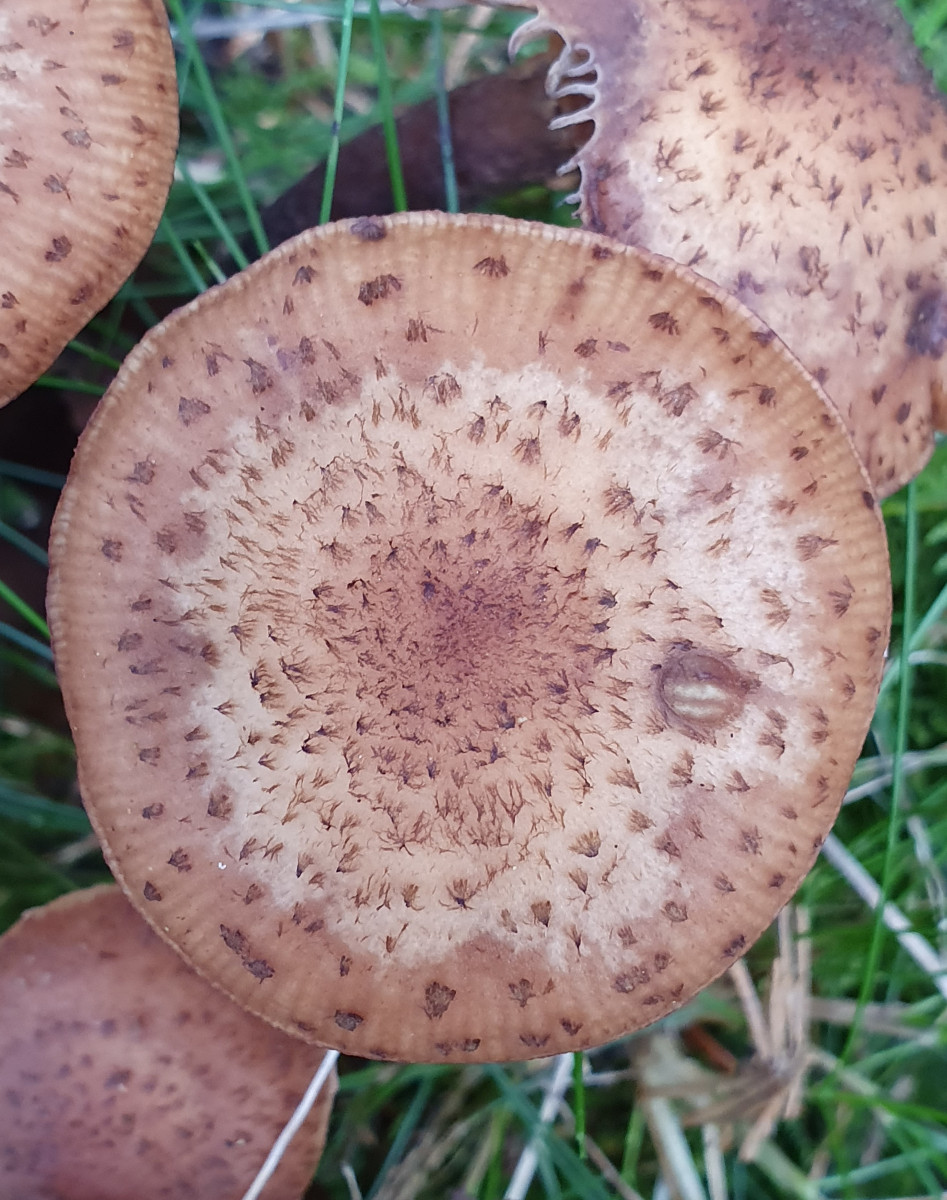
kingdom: Fungi
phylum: Basidiomycota
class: Agaricomycetes
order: Agaricales
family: Physalacriaceae
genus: Armillaria
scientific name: Armillaria ostoyae
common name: mørk honningsvamp
